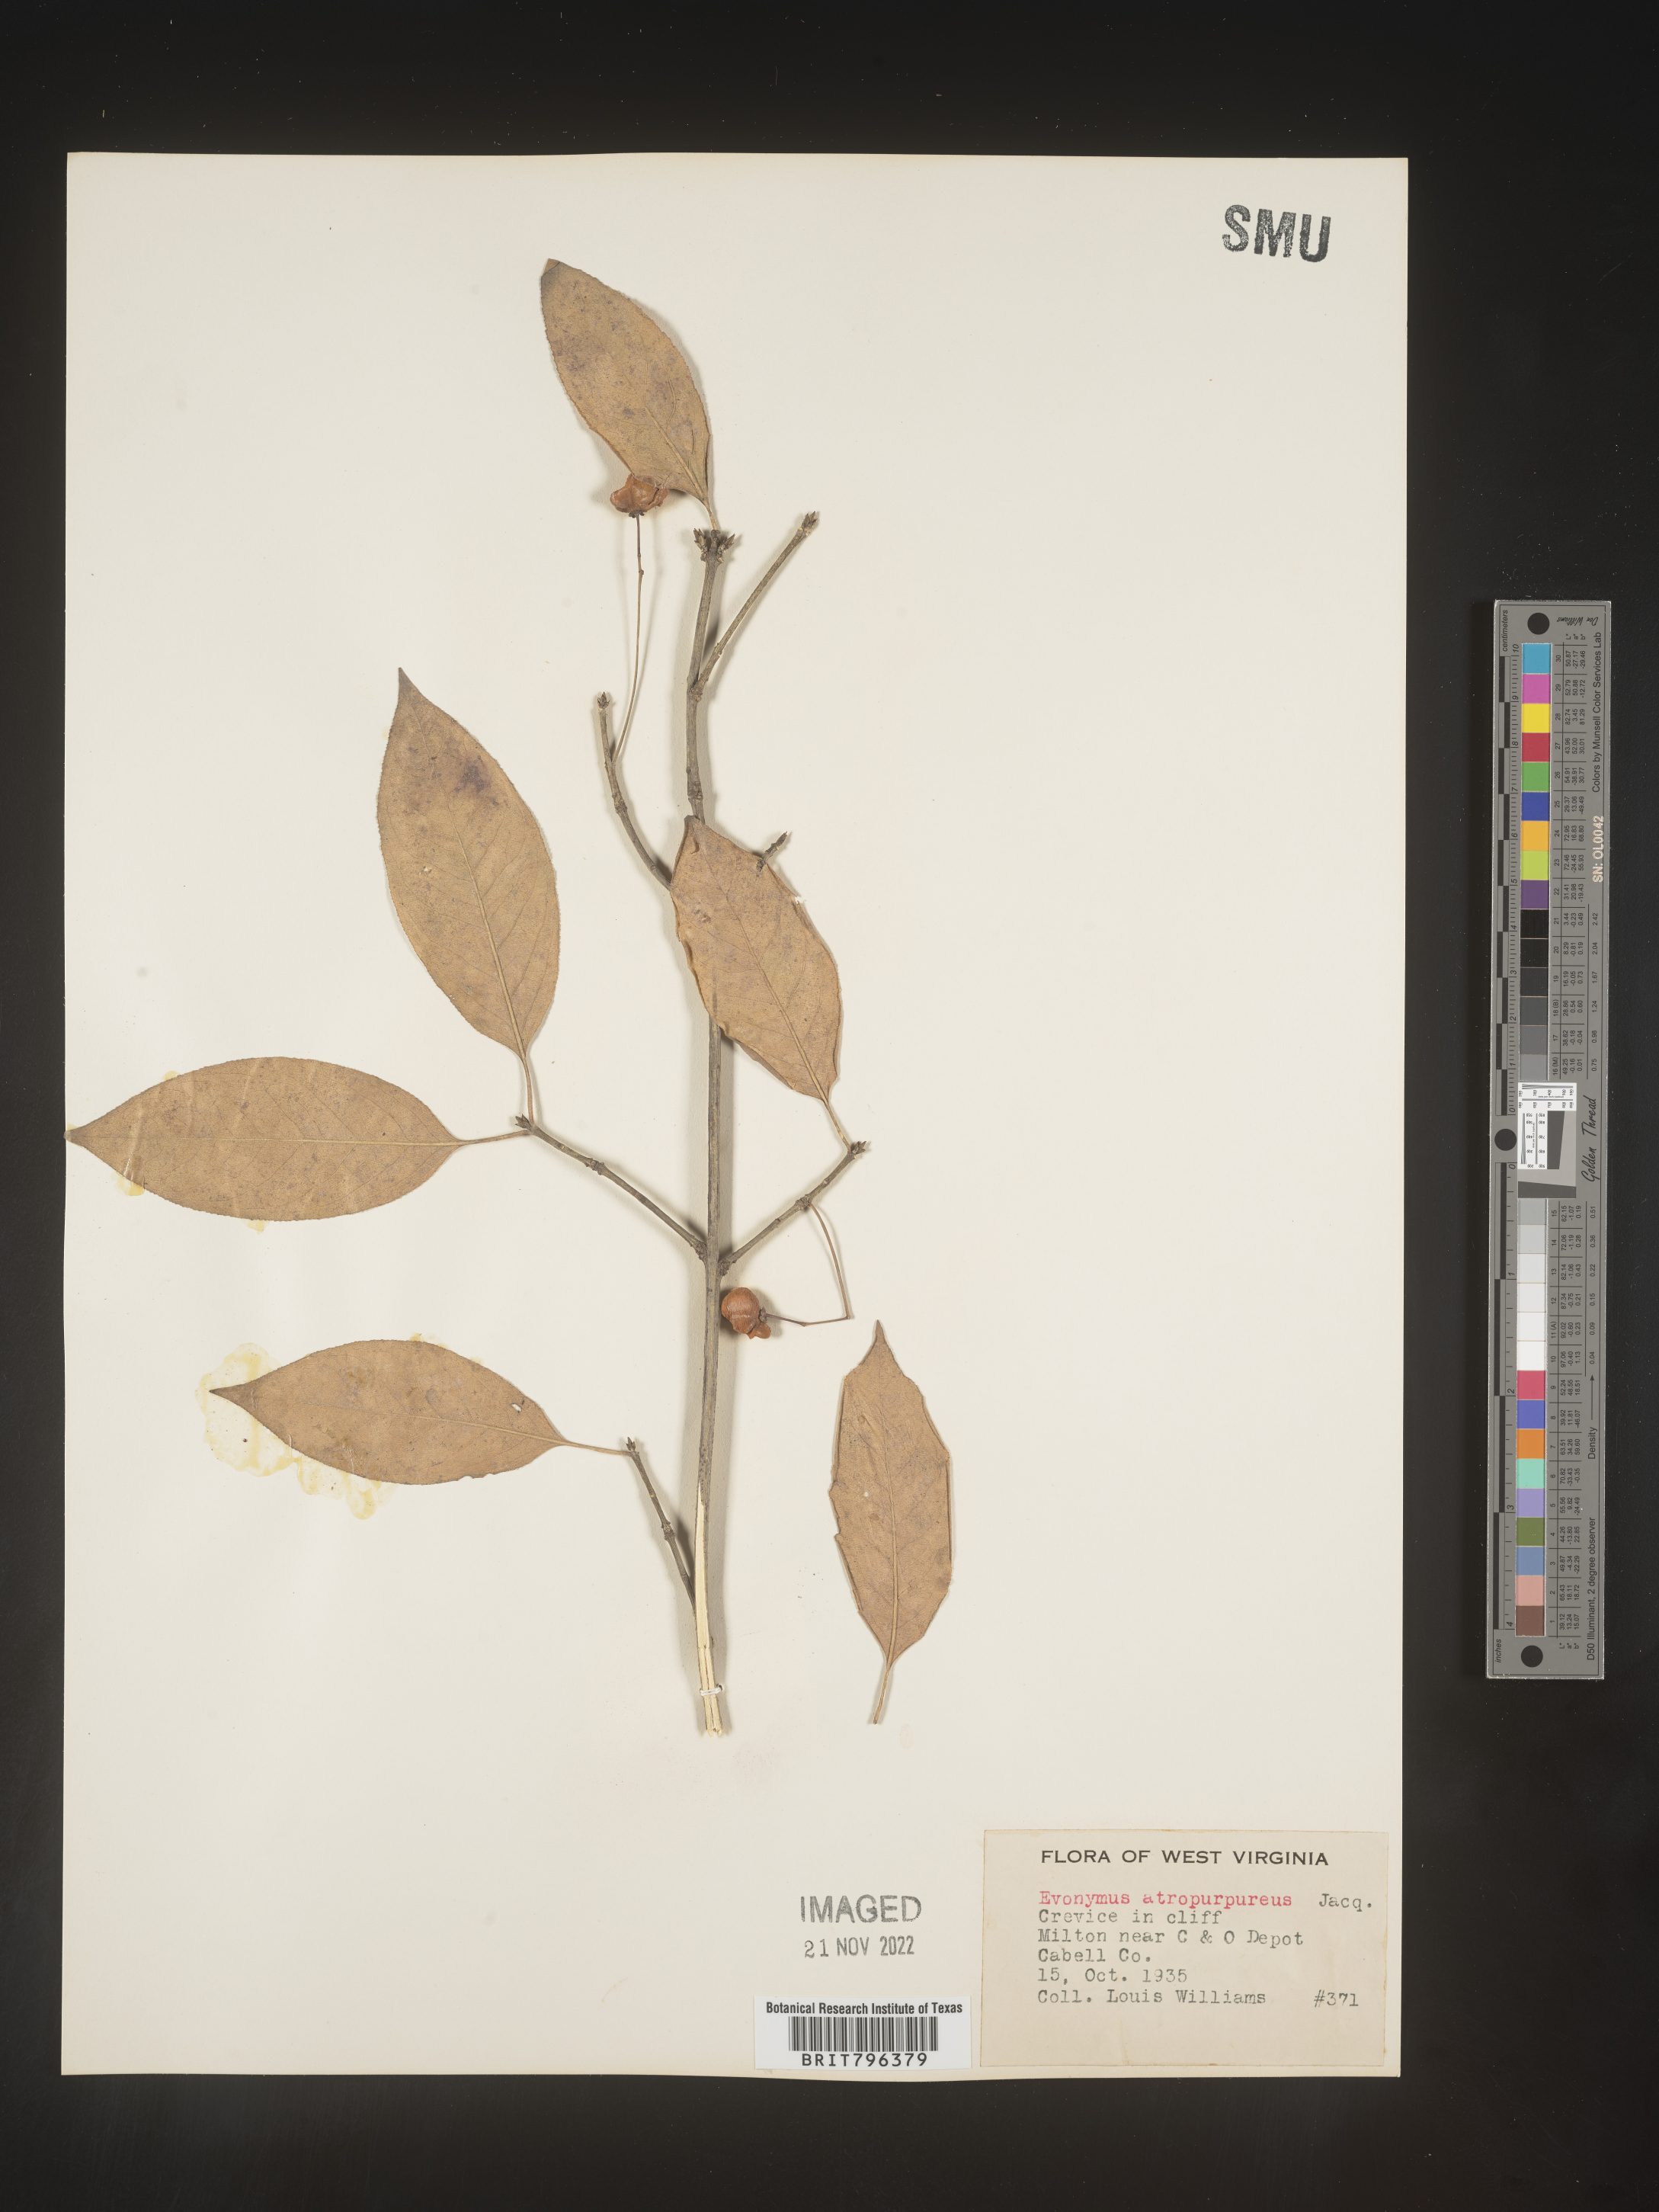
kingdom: Plantae
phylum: Tracheophyta
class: Magnoliopsida
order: Celastrales
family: Celastraceae
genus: Euonymus
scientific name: Euonymus atropurpureus
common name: Eastern wahoo
